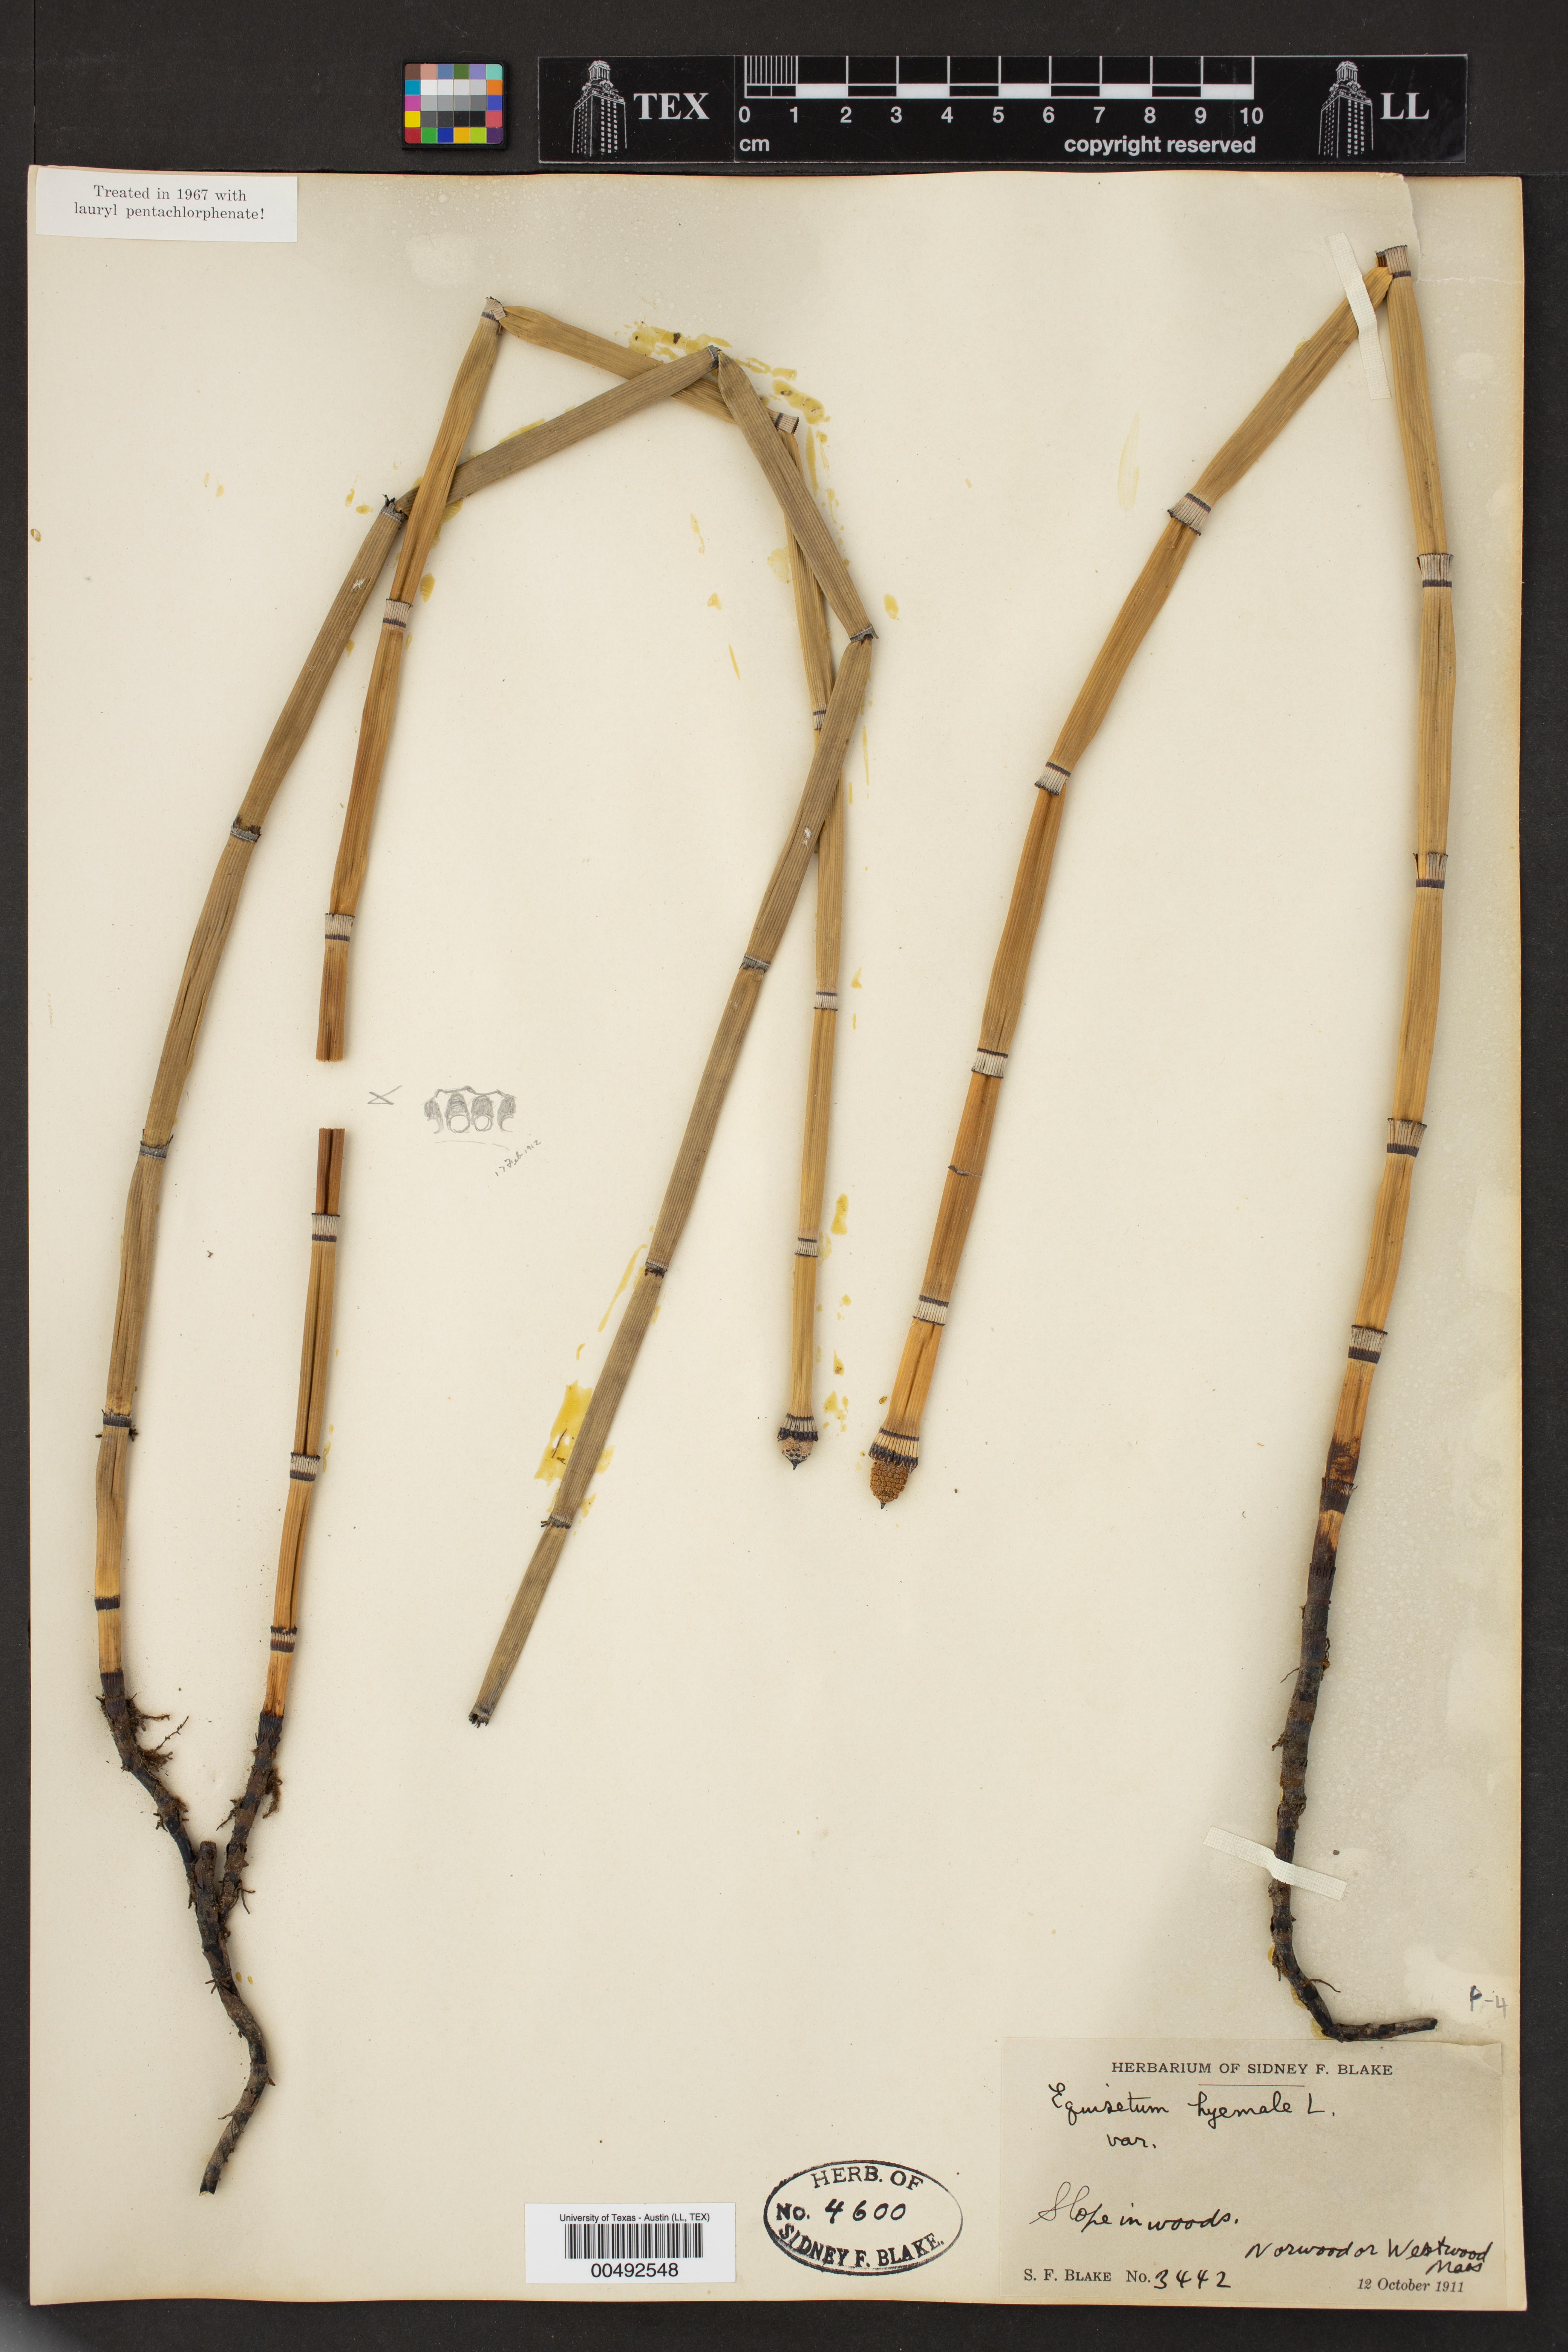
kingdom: Plantae
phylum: Tracheophyta
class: Polypodiopsida
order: Equisetales
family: Equisetaceae
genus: Equisetum
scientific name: Equisetum hyemale
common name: Rough horsetail
